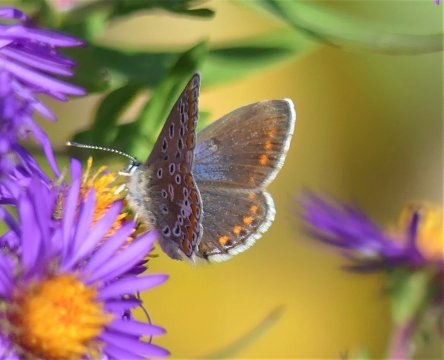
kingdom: Animalia
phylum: Arthropoda
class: Insecta
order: Lepidoptera
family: Lycaenidae
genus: Polyommatus
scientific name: Polyommatus icarus
